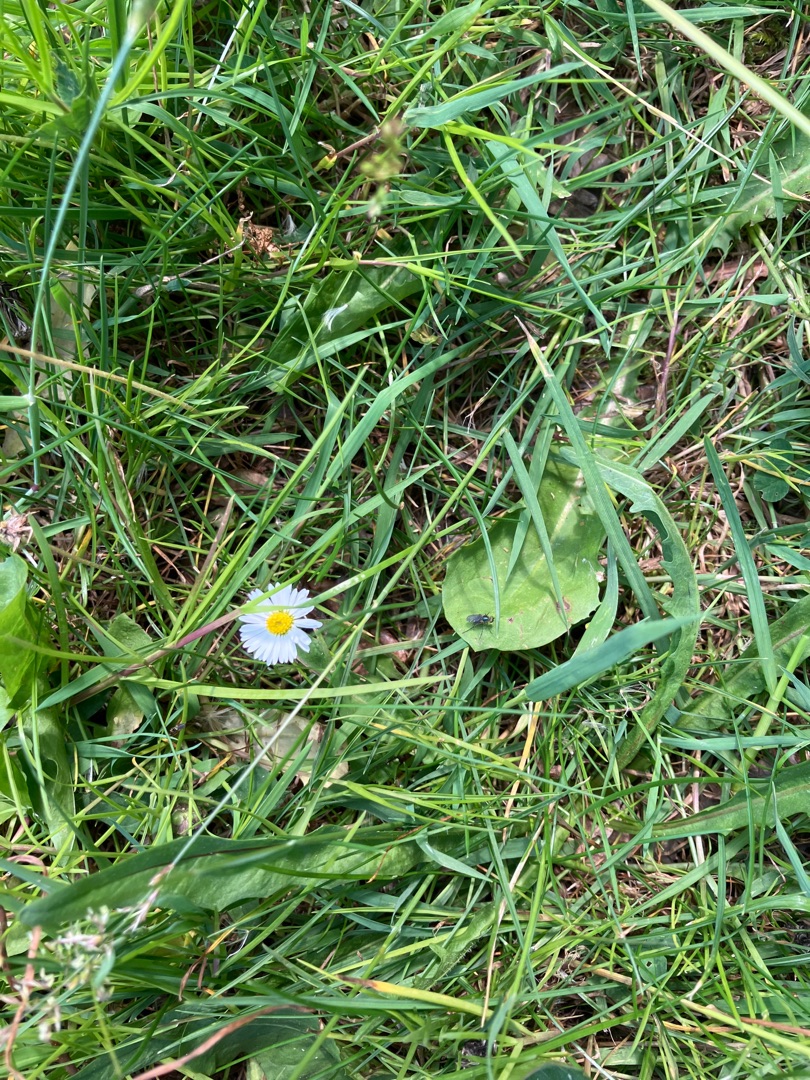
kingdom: Plantae
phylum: Tracheophyta
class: Magnoliopsida
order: Asterales
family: Asteraceae
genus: Bellis
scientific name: Bellis perennis
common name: Tusindfryd
